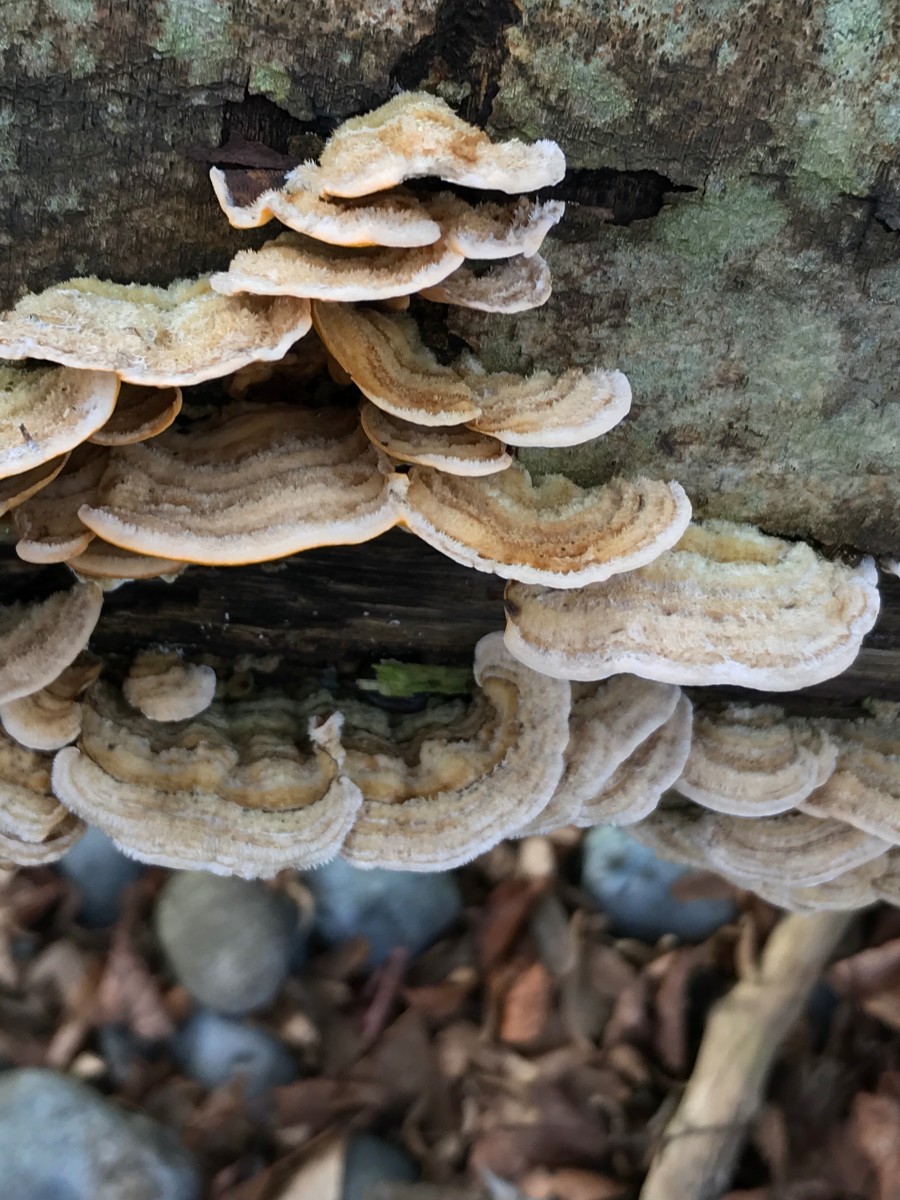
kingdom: Fungi
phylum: Basidiomycota
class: Agaricomycetes
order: Russulales
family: Stereaceae
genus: Stereum
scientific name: Stereum hirsutum
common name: håret lædersvamp
